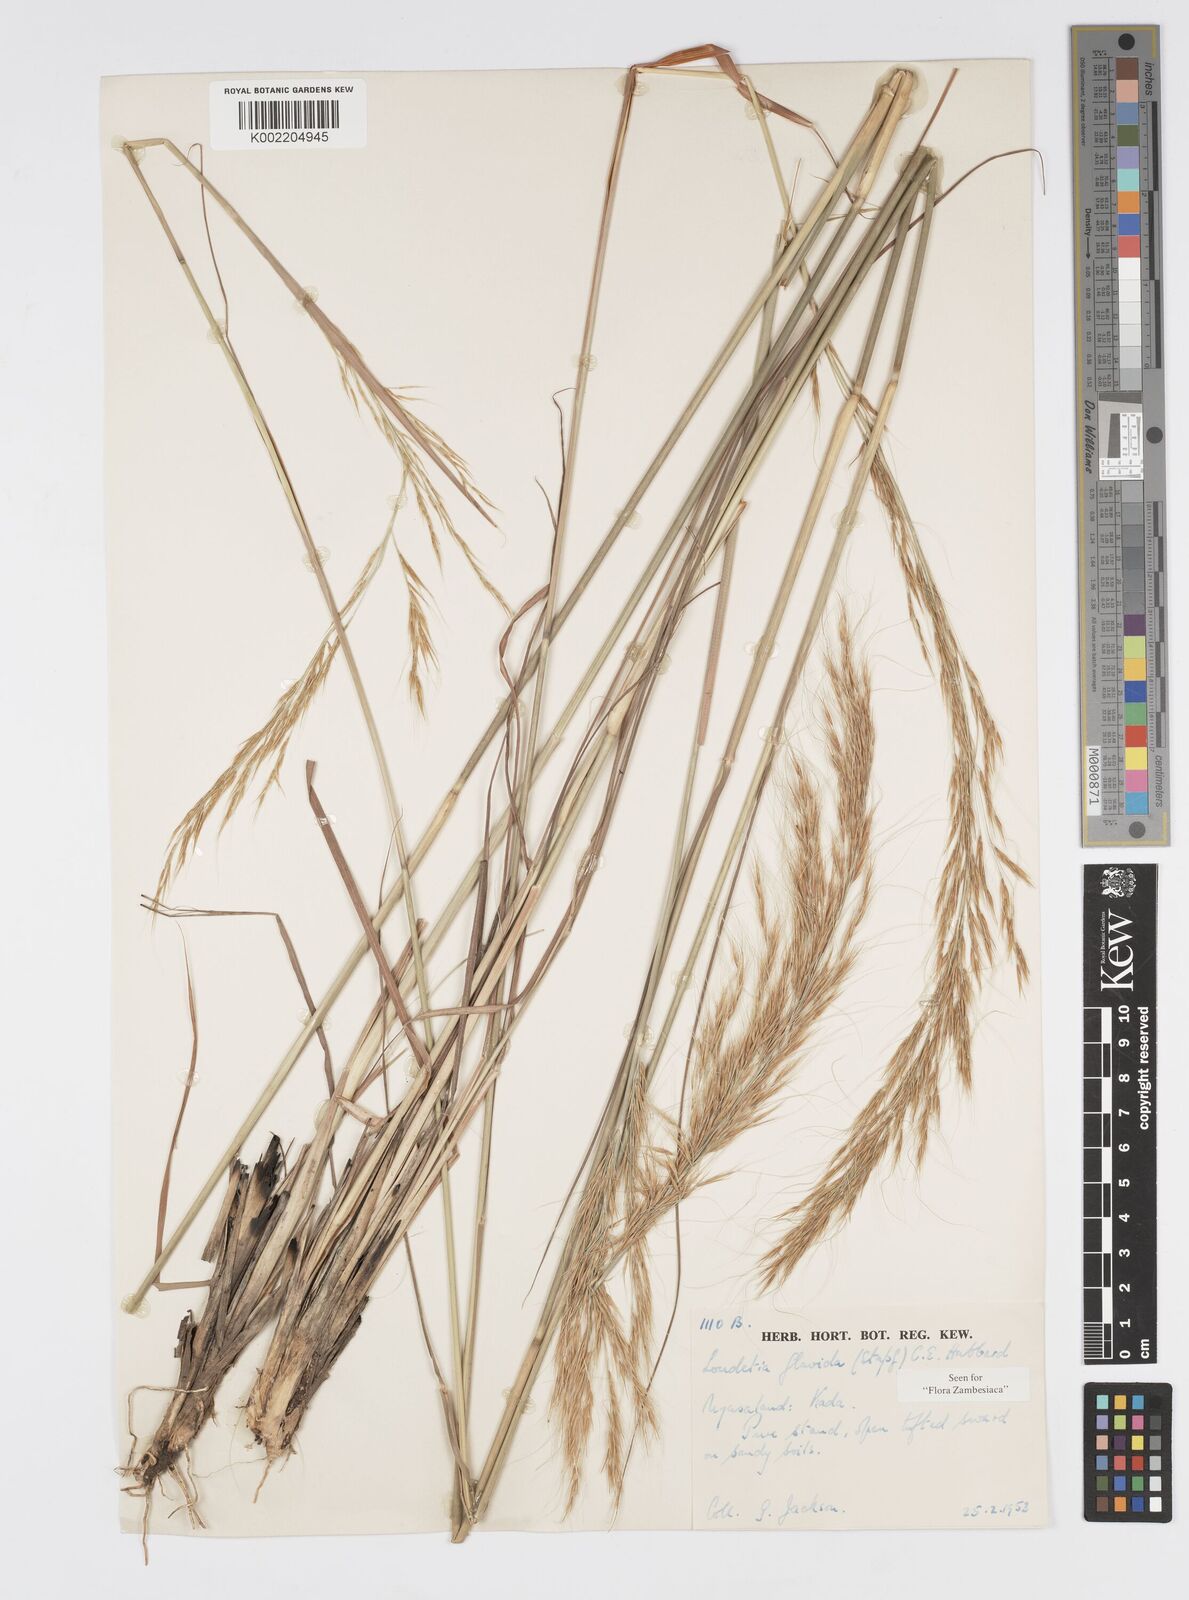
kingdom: Plantae
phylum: Tracheophyta
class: Liliopsida
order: Poales
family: Poaceae
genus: Loudetia
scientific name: Loudetia flavida
